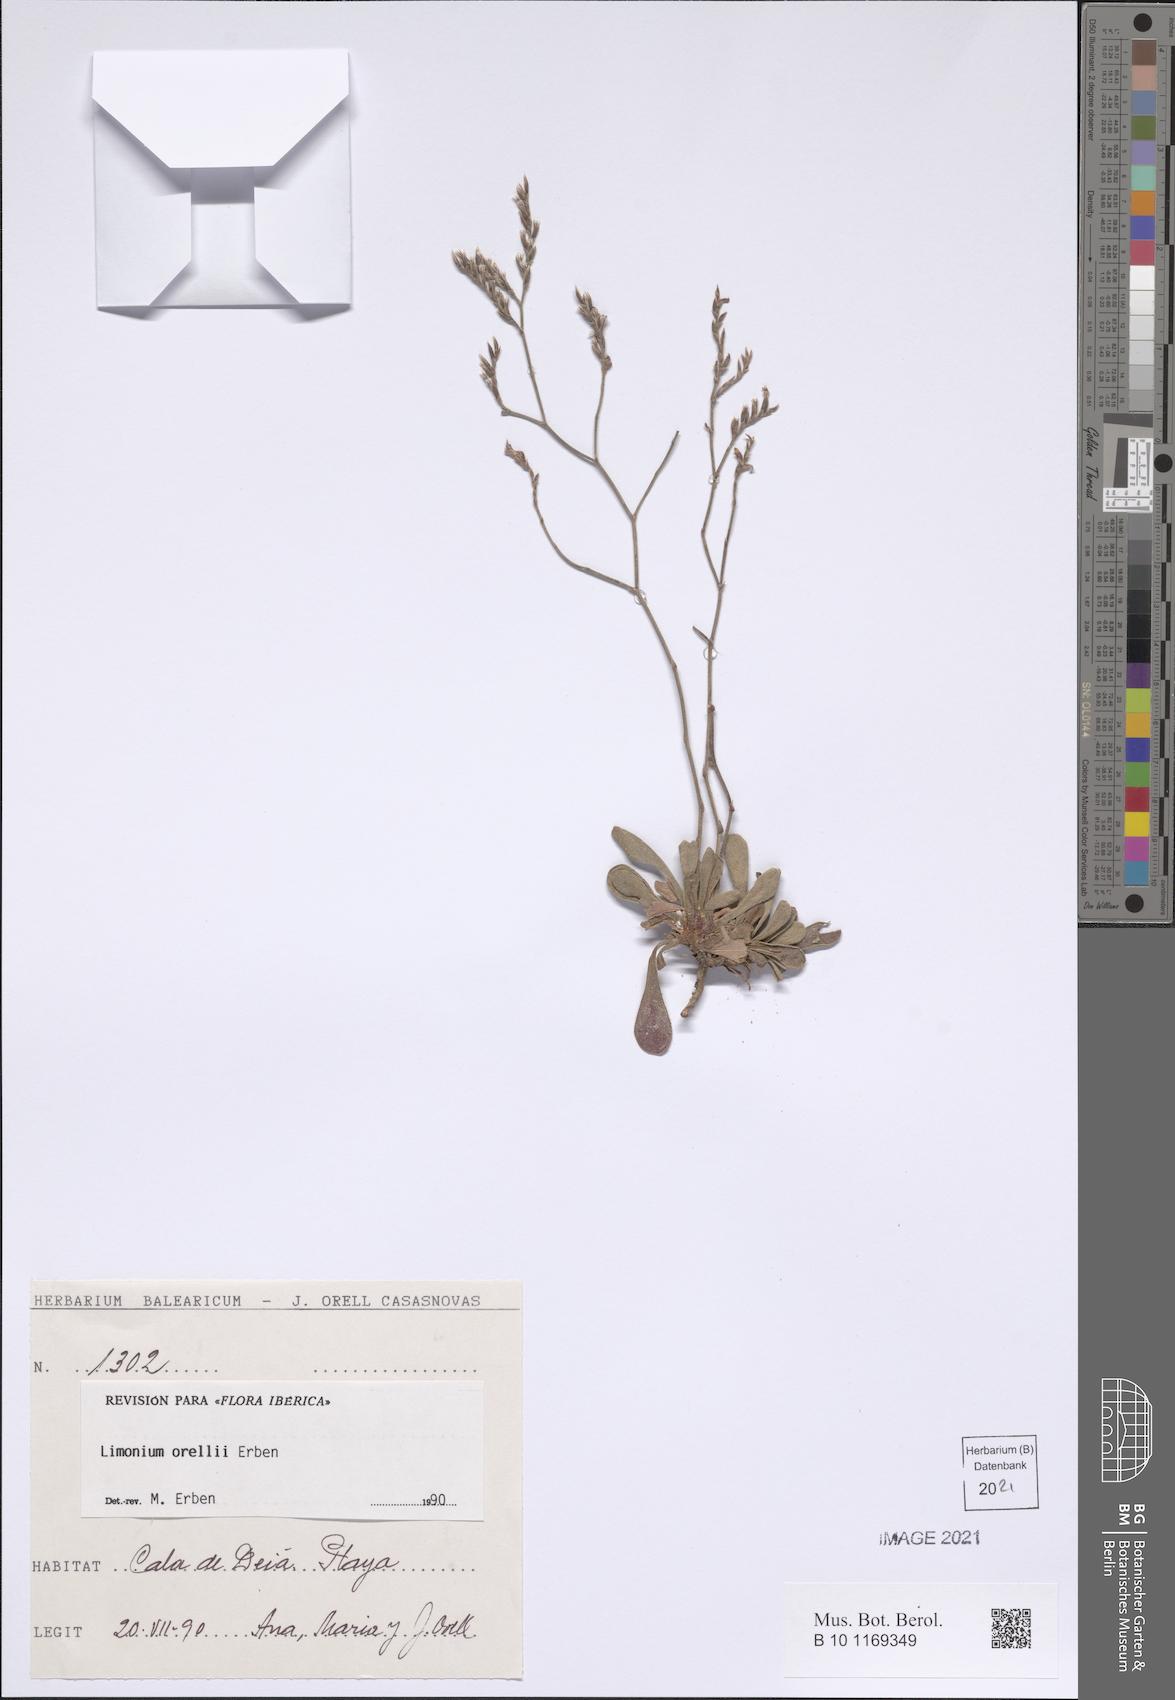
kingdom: Plantae
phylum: Tracheophyta
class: Magnoliopsida
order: Caryophyllales
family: Plumbaginaceae
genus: Limonium
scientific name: Limonium orellii
